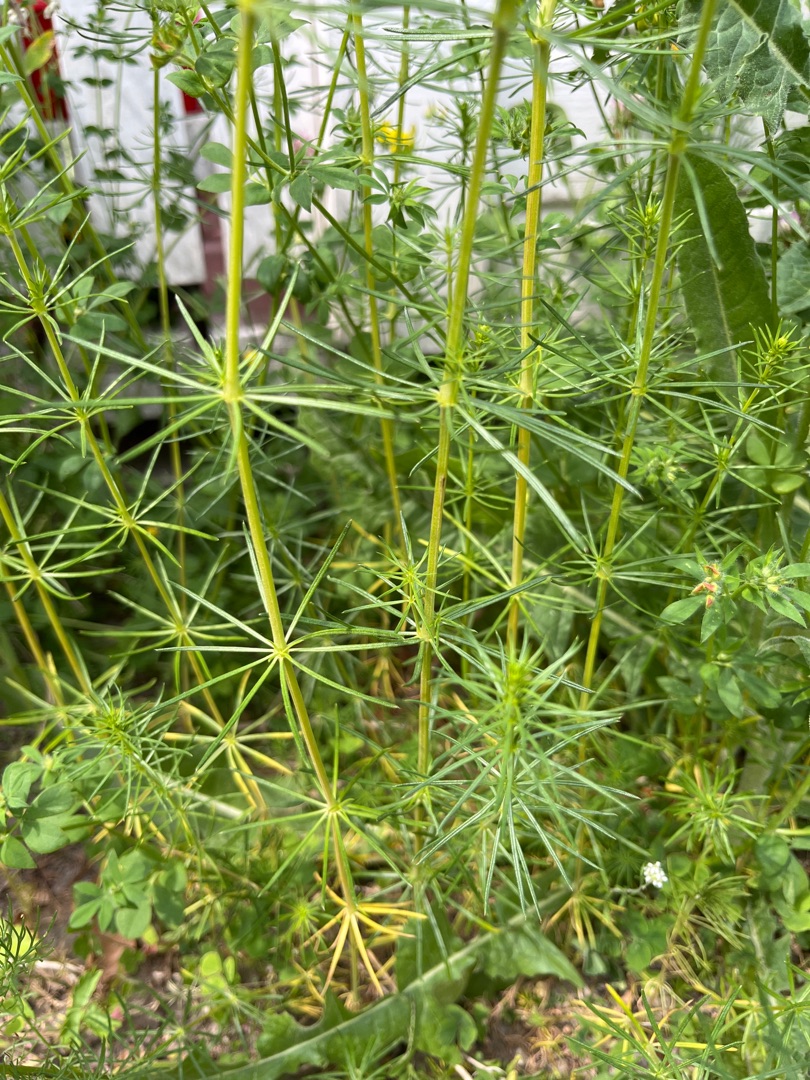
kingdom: Plantae
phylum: Tracheophyta
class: Magnoliopsida
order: Gentianales
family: Rubiaceae
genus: Galium
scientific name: Galium verum
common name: Gul snerre
